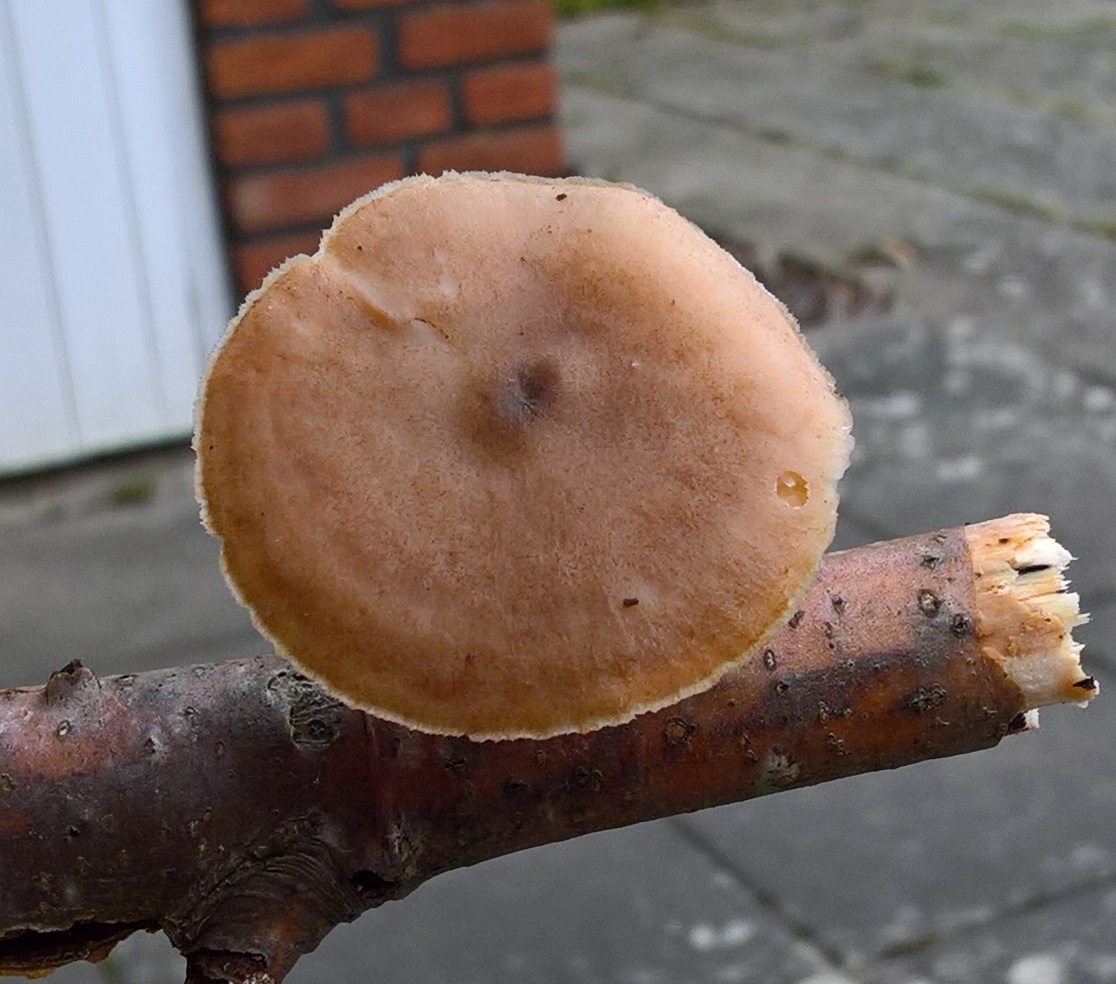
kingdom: Fungi
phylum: Basidiomycota
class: Agaricomycetes
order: Polyporales
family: Polyporaceae
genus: Lentinus
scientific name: Lentinus brumalis
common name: vinter-stilkporesvamp
